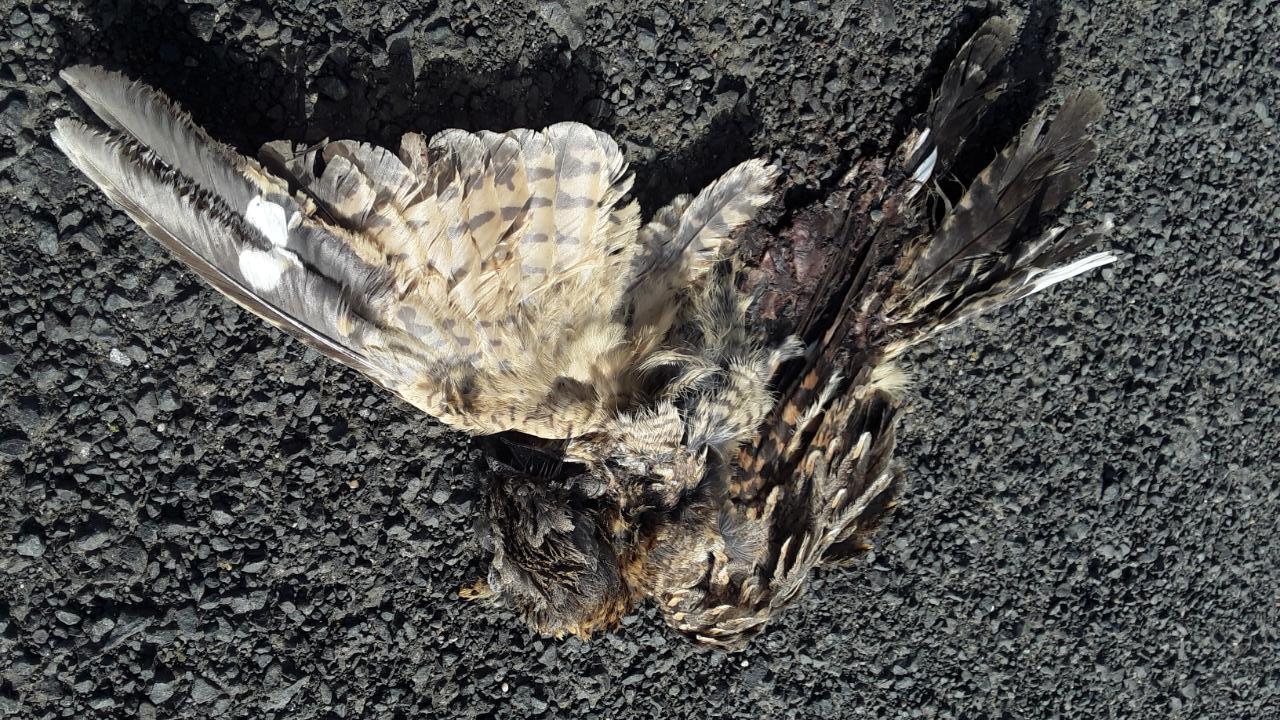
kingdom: Animalia
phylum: Chordata
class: Aves
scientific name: Aves
